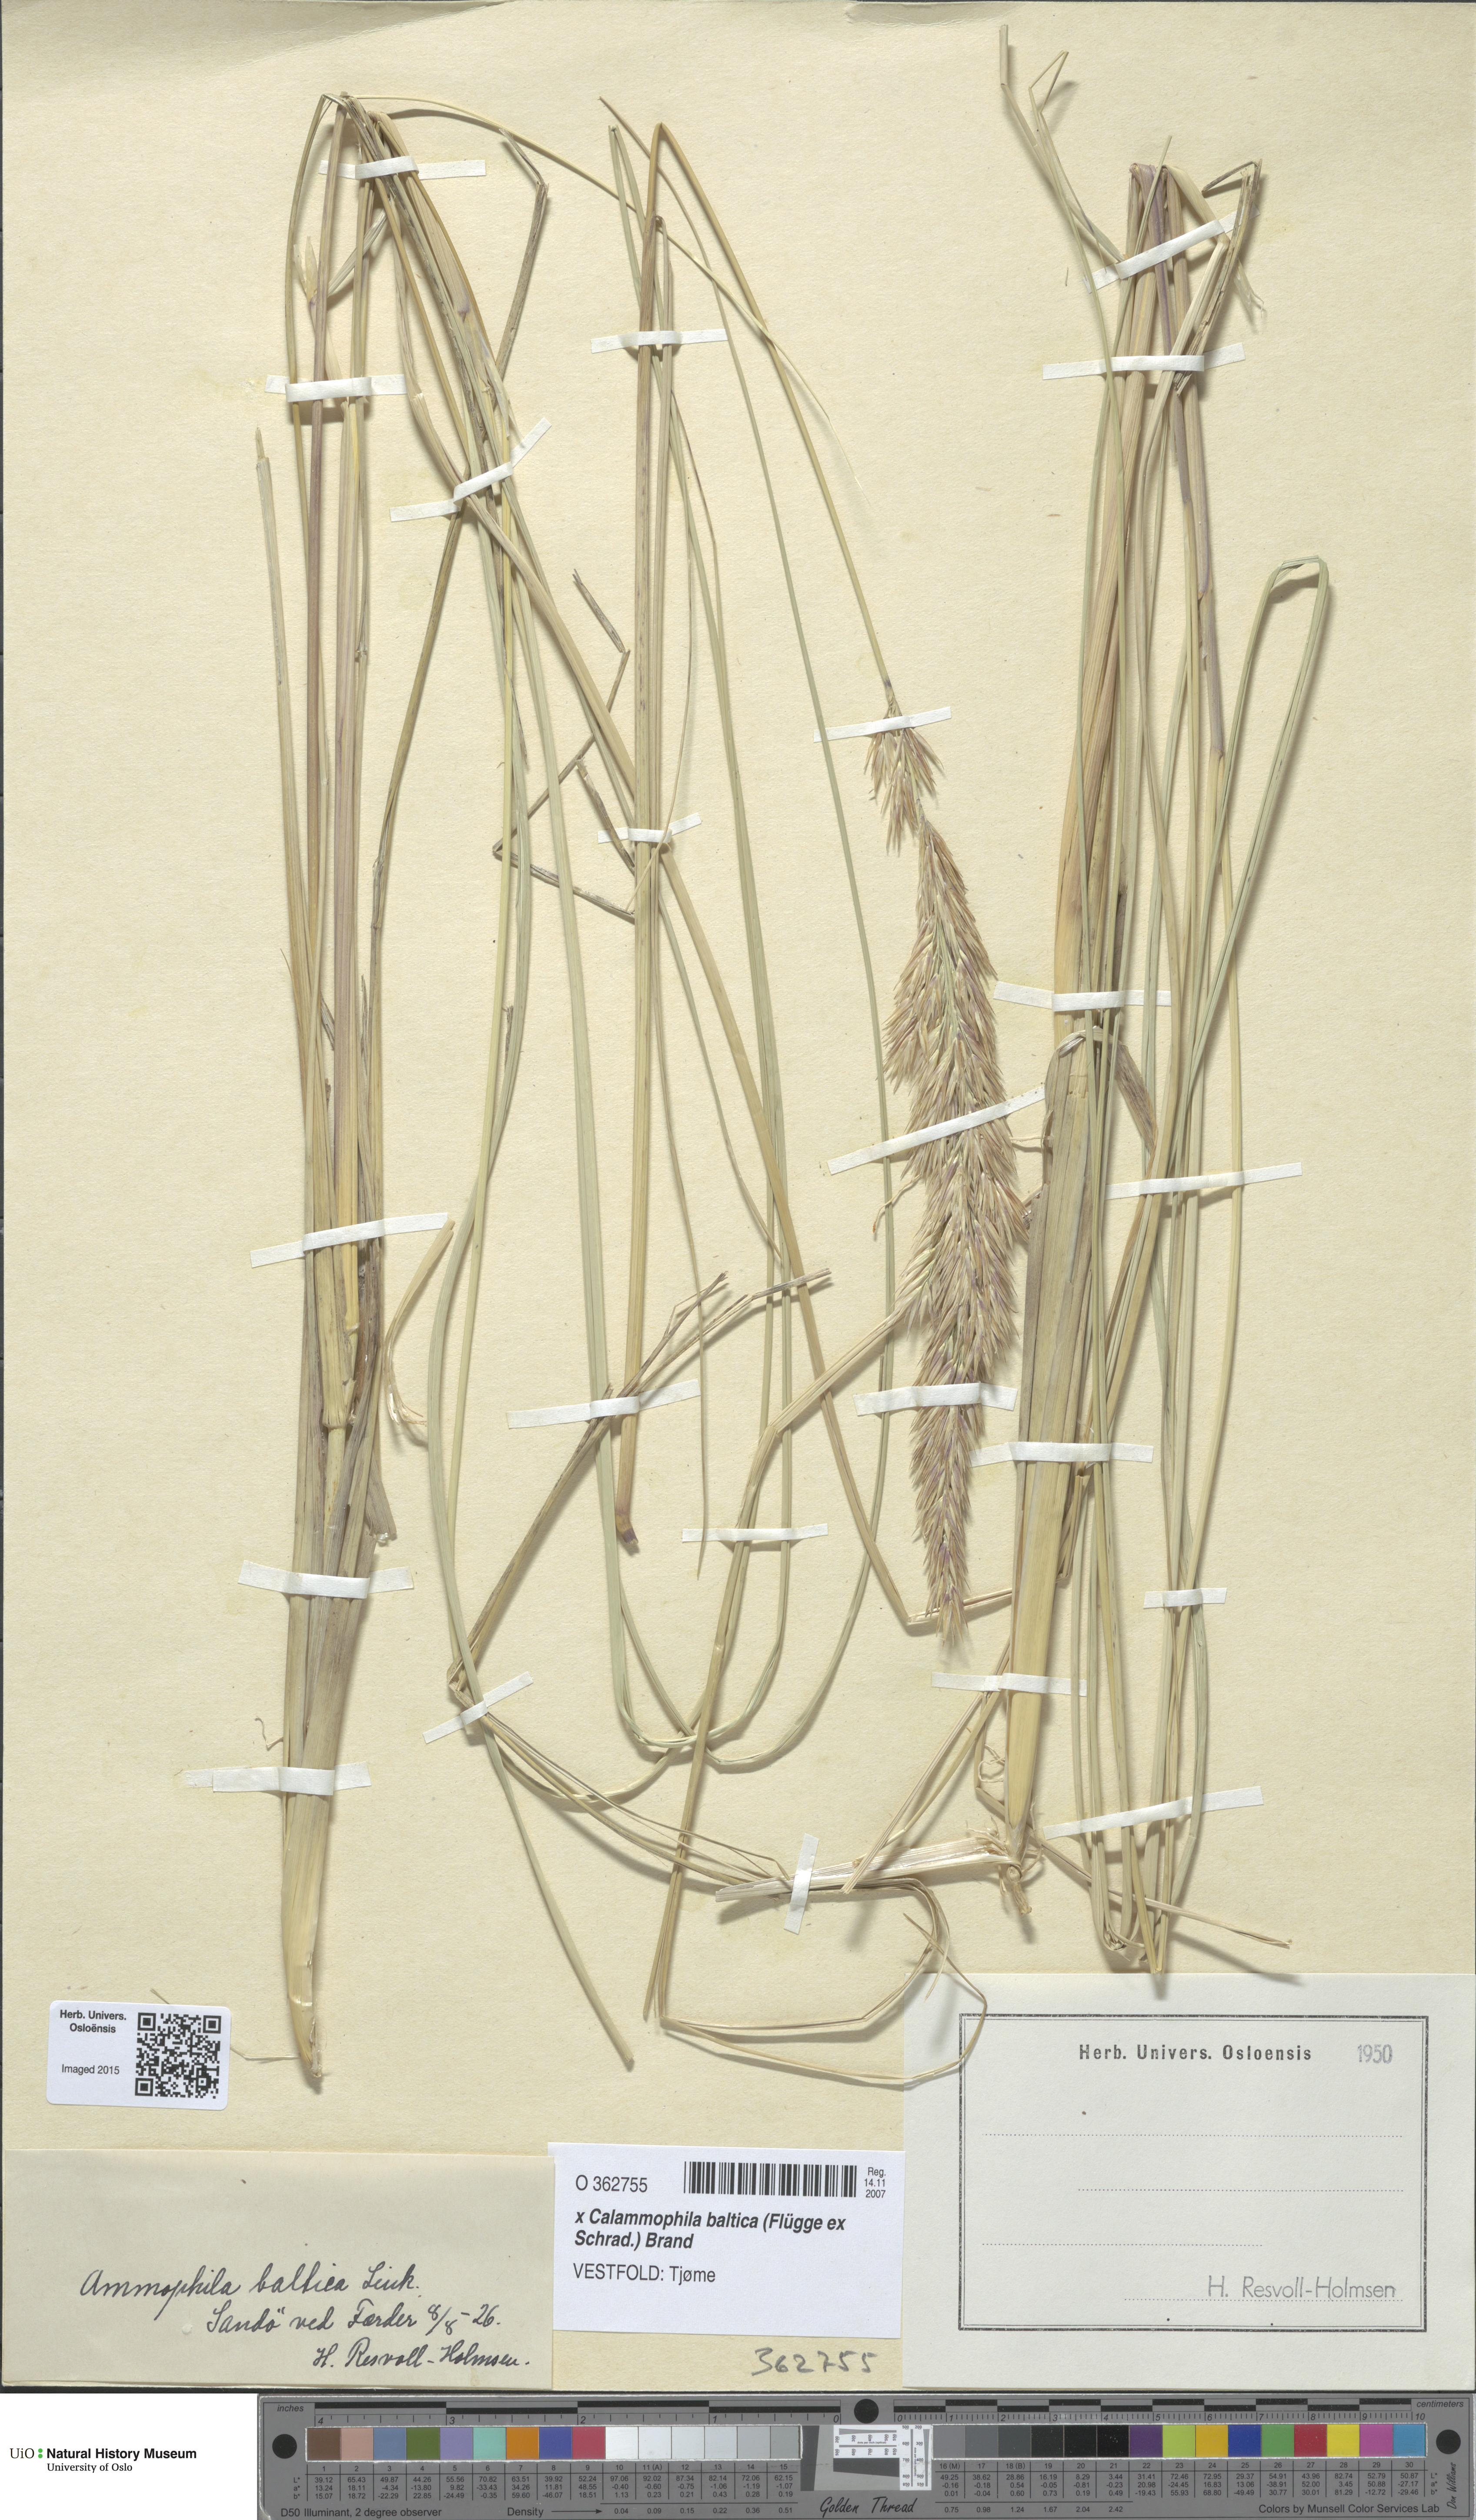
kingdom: Plantae
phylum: Tracheophyta
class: Liliopsida
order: Poales
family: Poaceae
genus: Calamagrostis
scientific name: Calamagrostis baltica
